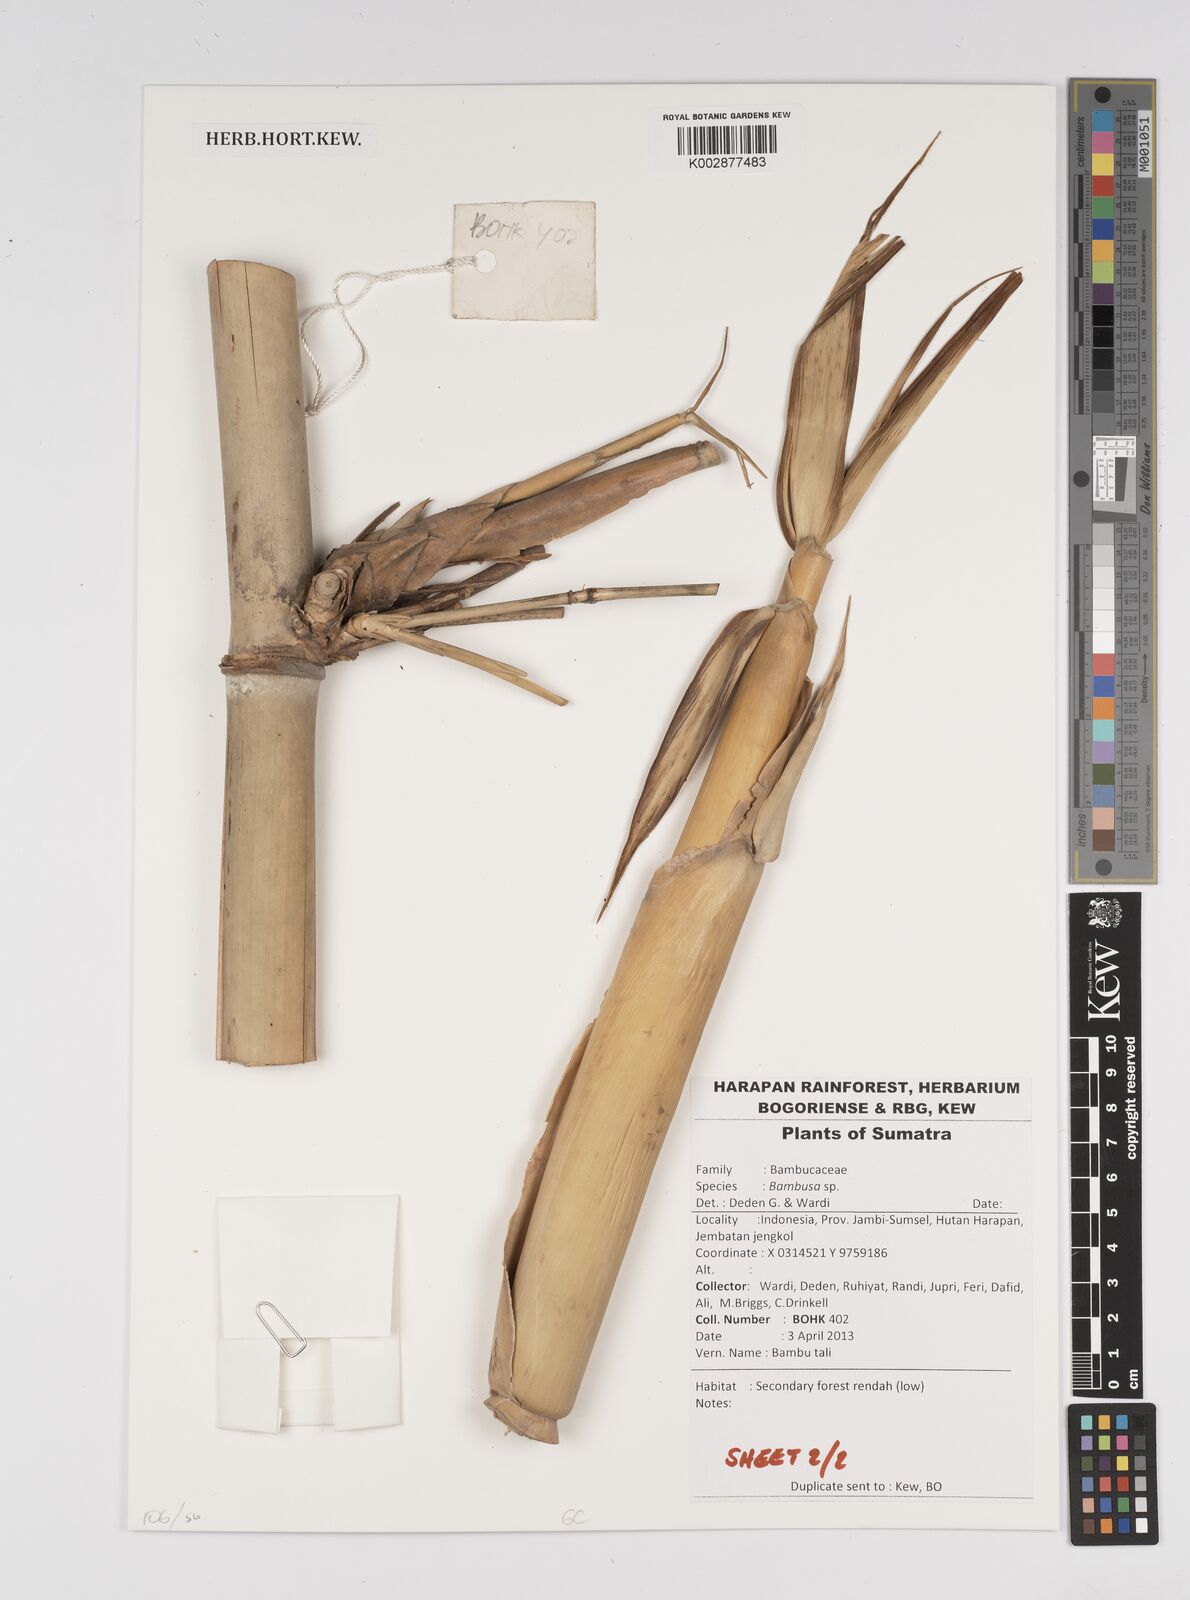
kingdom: Plantae
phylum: Tracheophyta
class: Liliopsida
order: Poales
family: Poaceae
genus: Bambusa
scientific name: Bambusa
